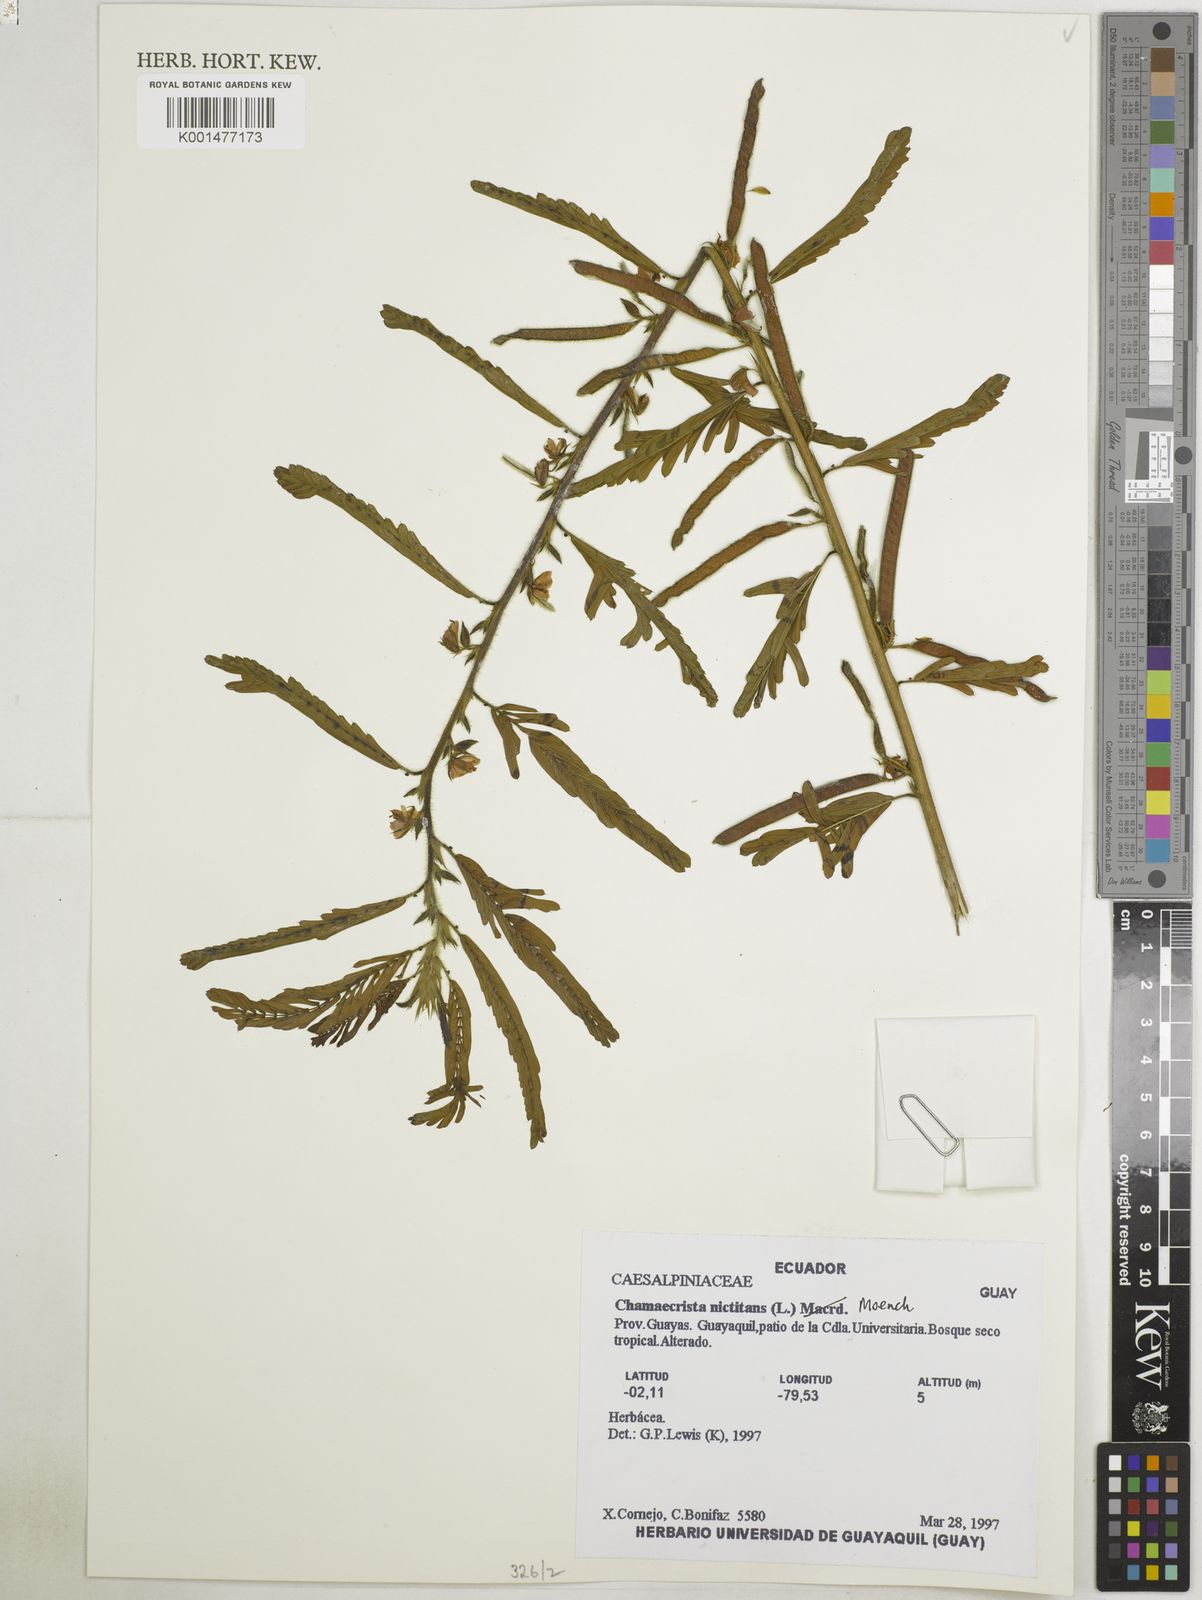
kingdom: Plantae
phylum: Tracheophyta
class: Magnoliopsida
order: Fabales
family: Fabaceae
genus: Chamaecrista
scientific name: Chamaecrista nictitans
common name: Sensitive cassia
